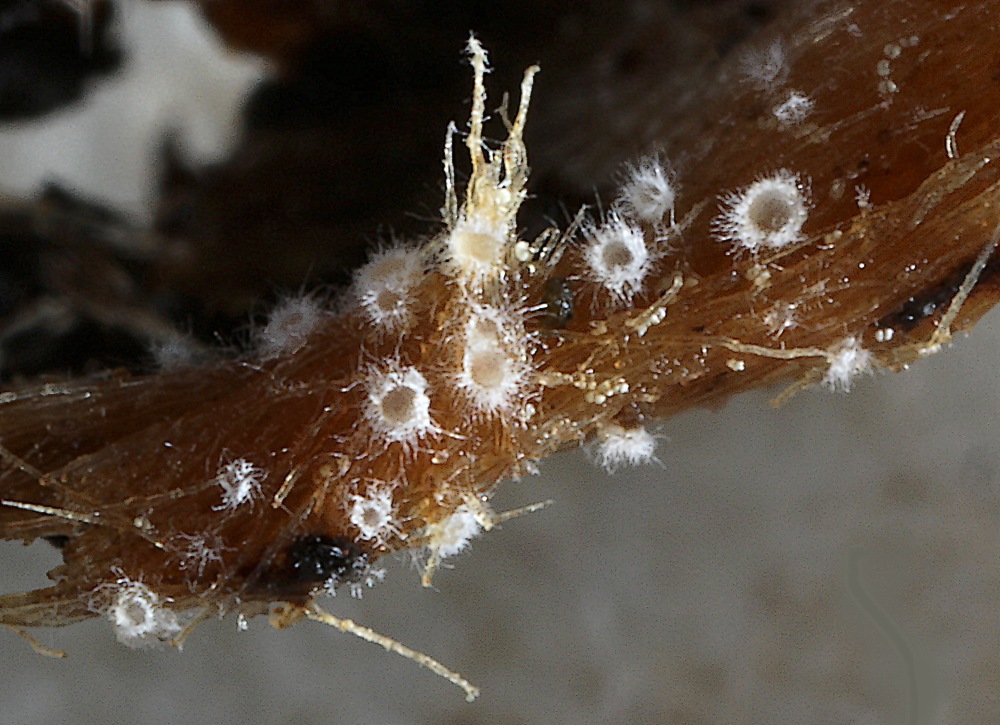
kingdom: Fungi
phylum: Ascomycota
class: Leotiomycetes
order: Helotiales
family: Arachnopezizaceae
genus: Arachnoscypha
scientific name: Arachnoscypha aranea
